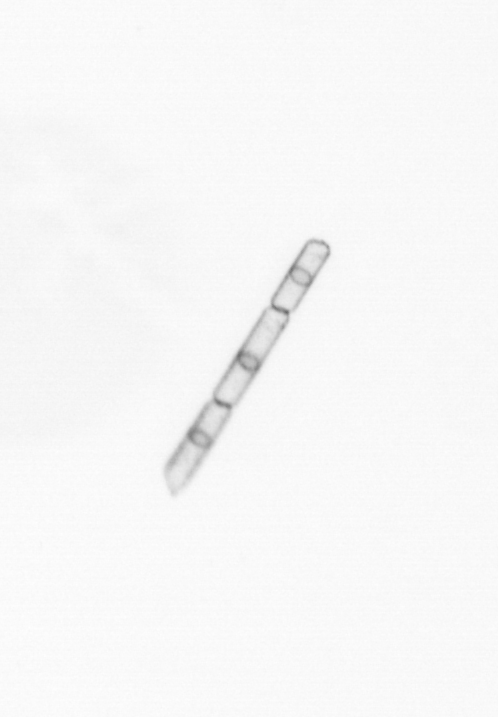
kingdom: Chromista
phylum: Ochrophyta
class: Bacillariophyceae
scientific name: Bacillariophyceae
